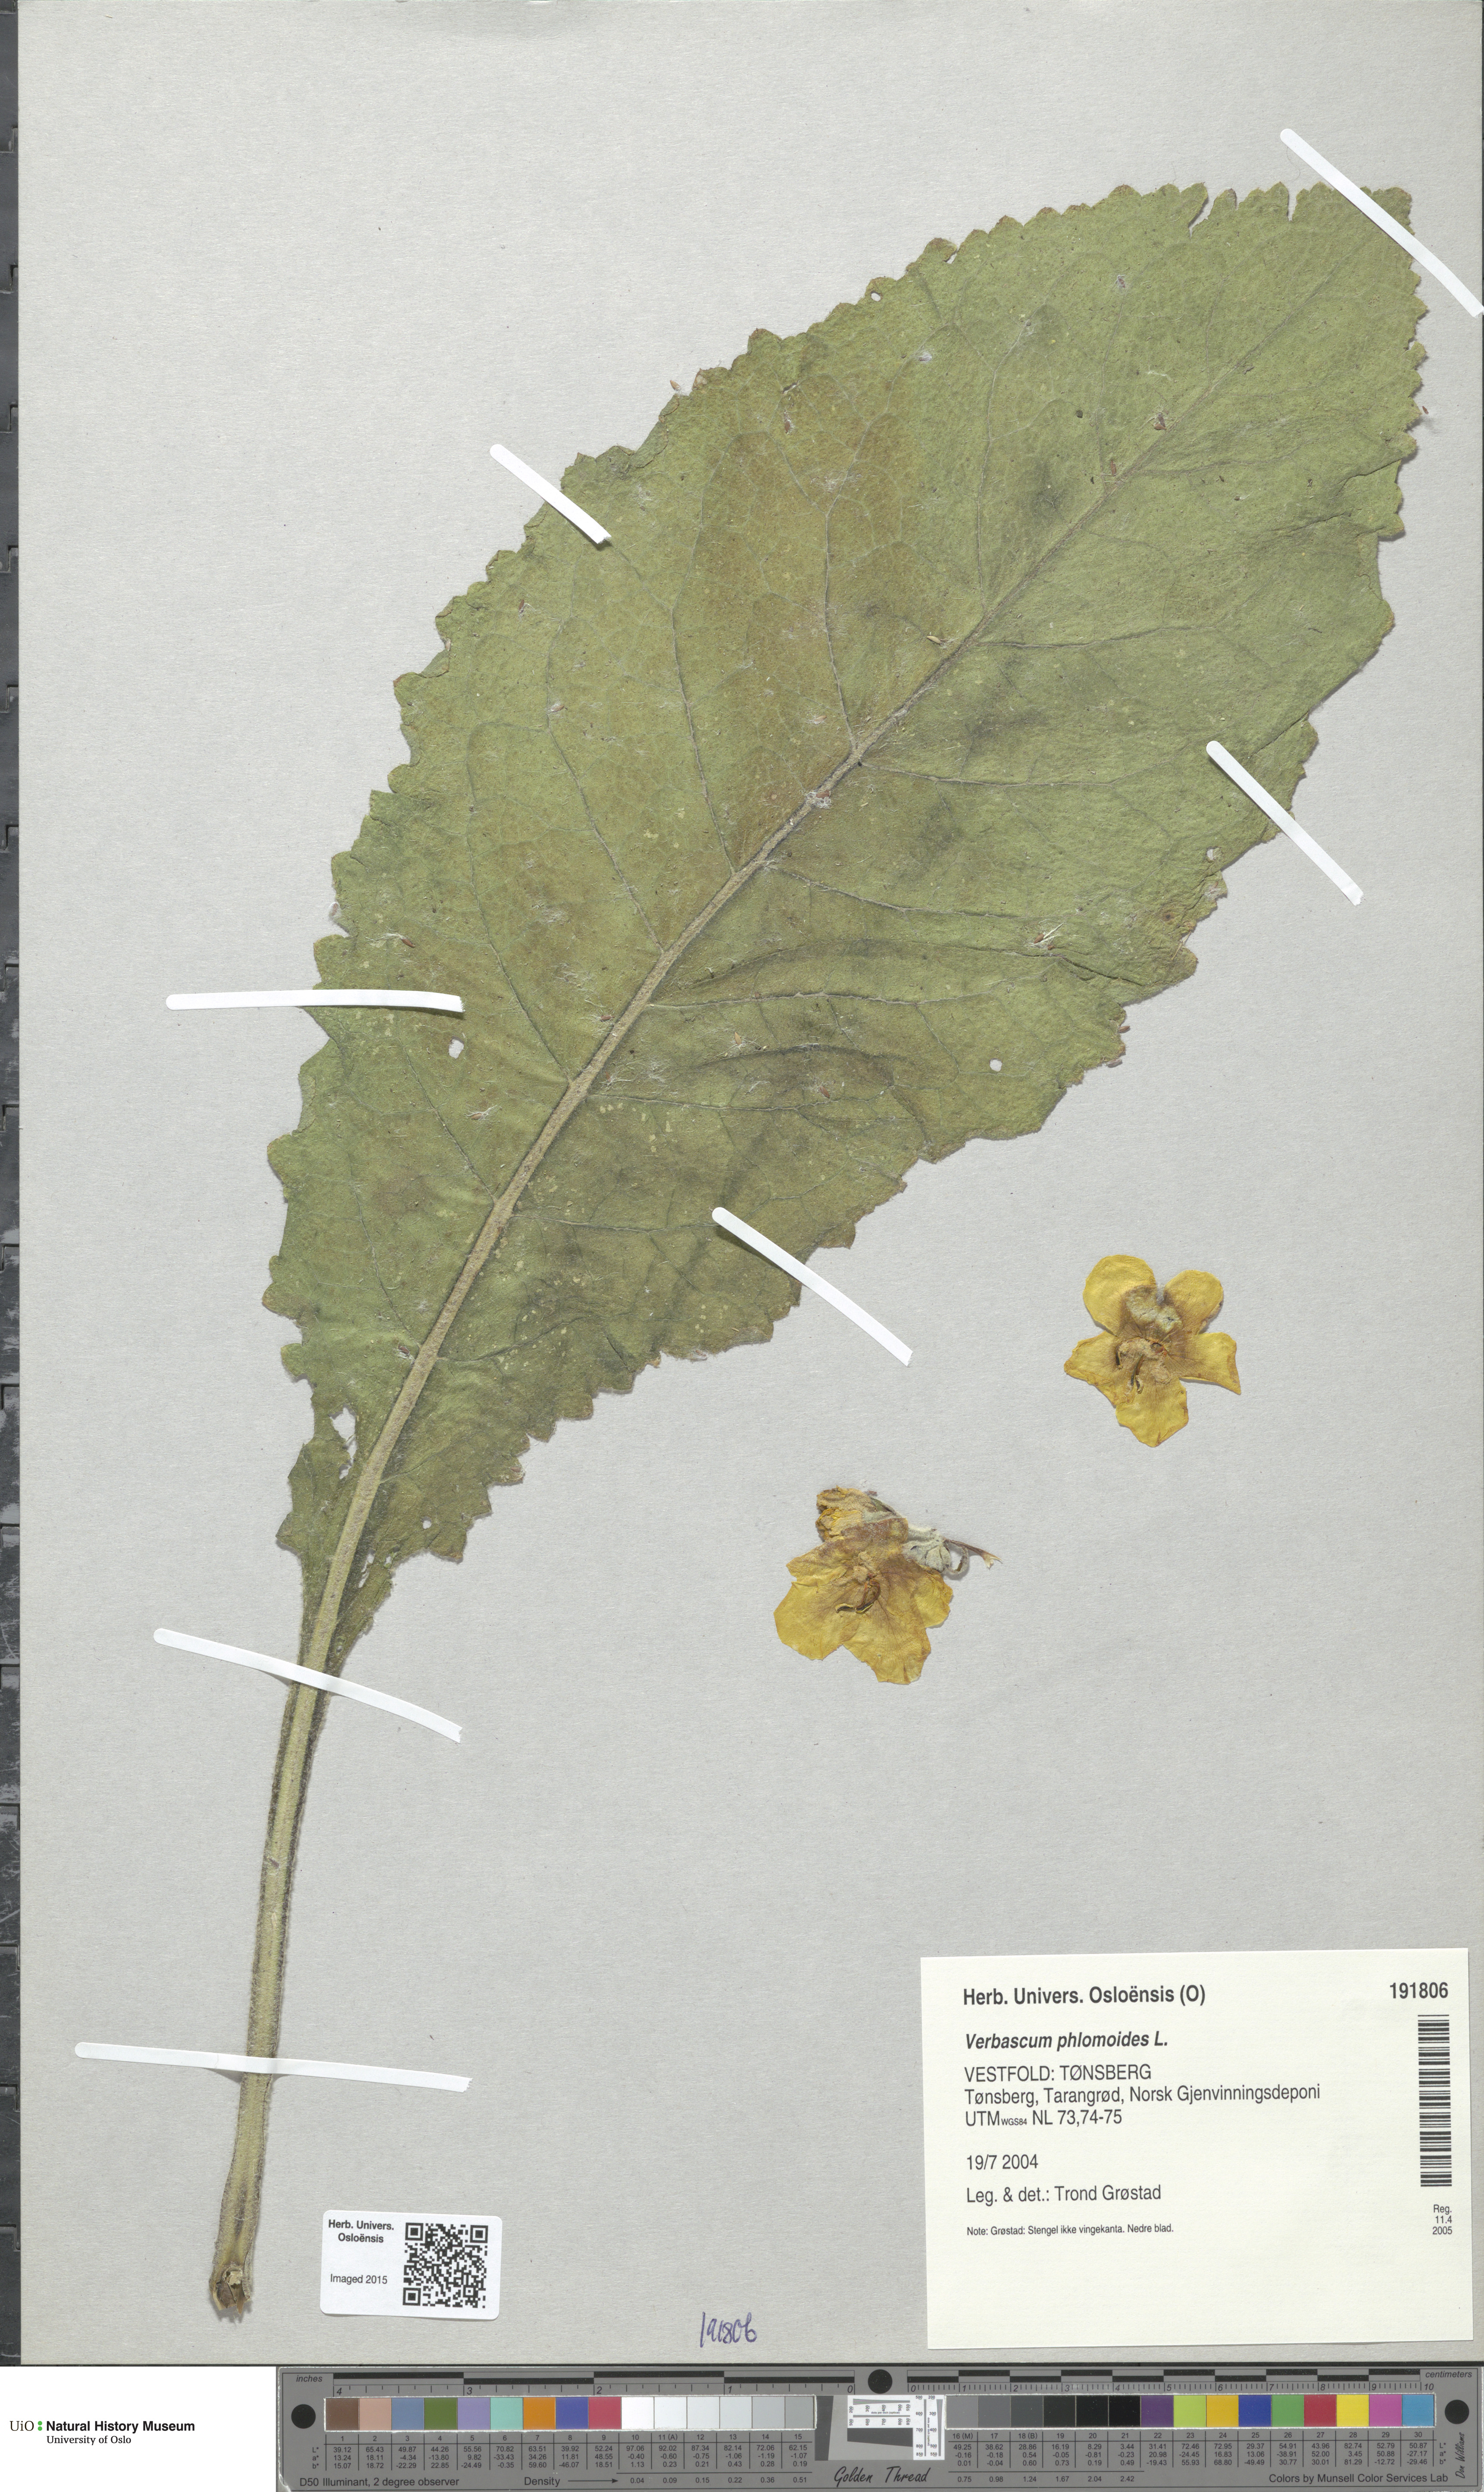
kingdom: Plantae
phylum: Tracheophyta
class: Magnoliopsida
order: Lamiales
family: Scrophulariaceae
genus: Verbascum
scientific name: Verbascum phlomoides
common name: Orange mullein
